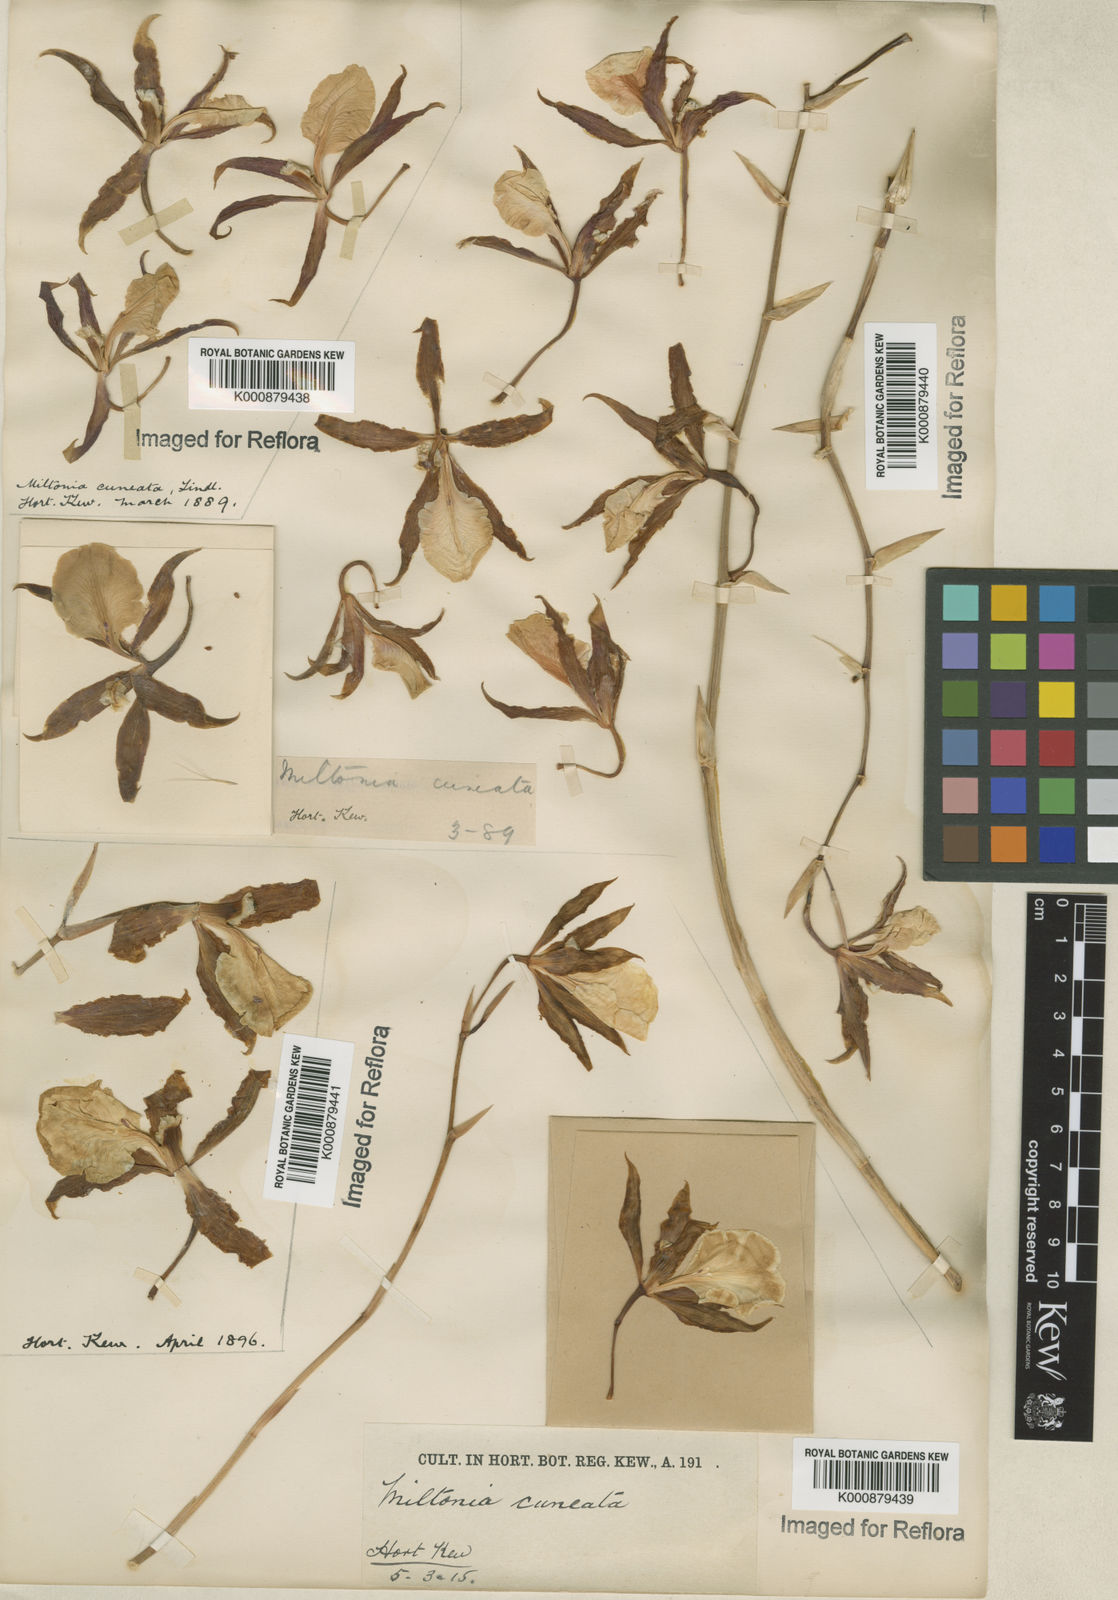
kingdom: Plantae
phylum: Tracheophyta
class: Liliopsida
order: Asparagales
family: Orchidaceae
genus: Miltonia
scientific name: Miltonia cuneata
